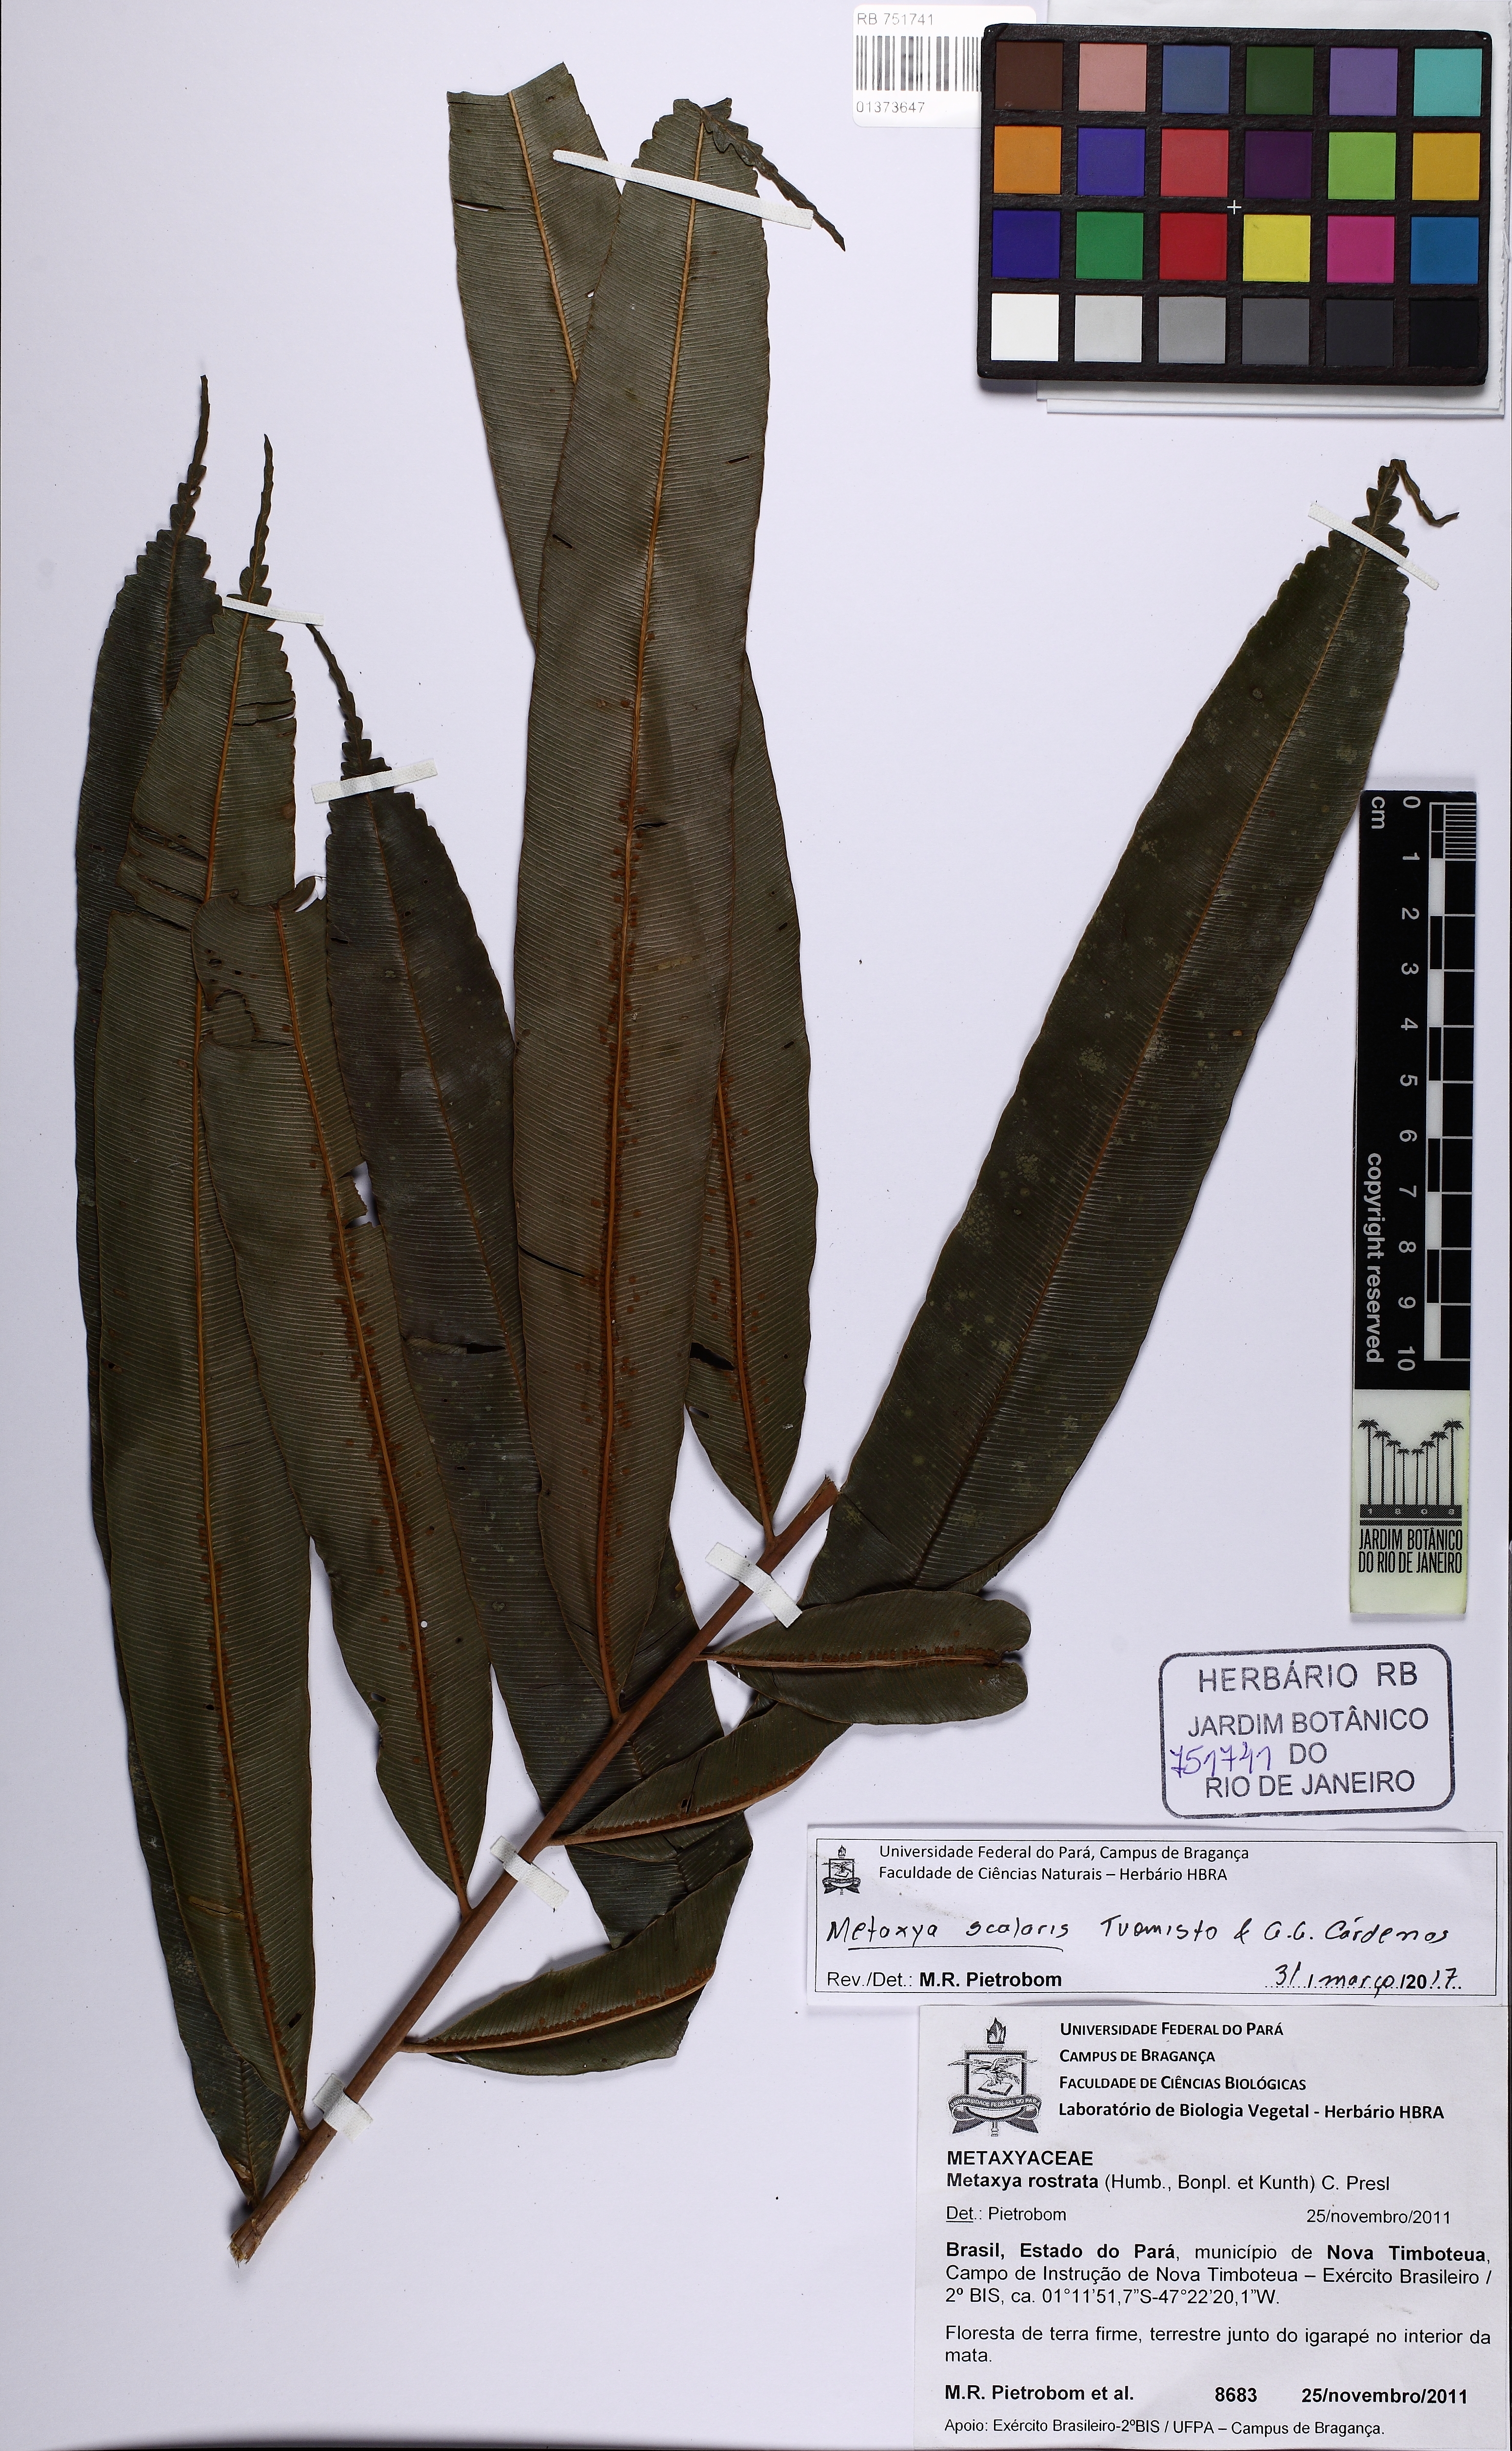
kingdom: Plantae
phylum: Tracheophyta
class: Polypodiopsida
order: Cyatheales
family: Metaxyaceae
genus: Metaxya
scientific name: Metaxya scalaris
